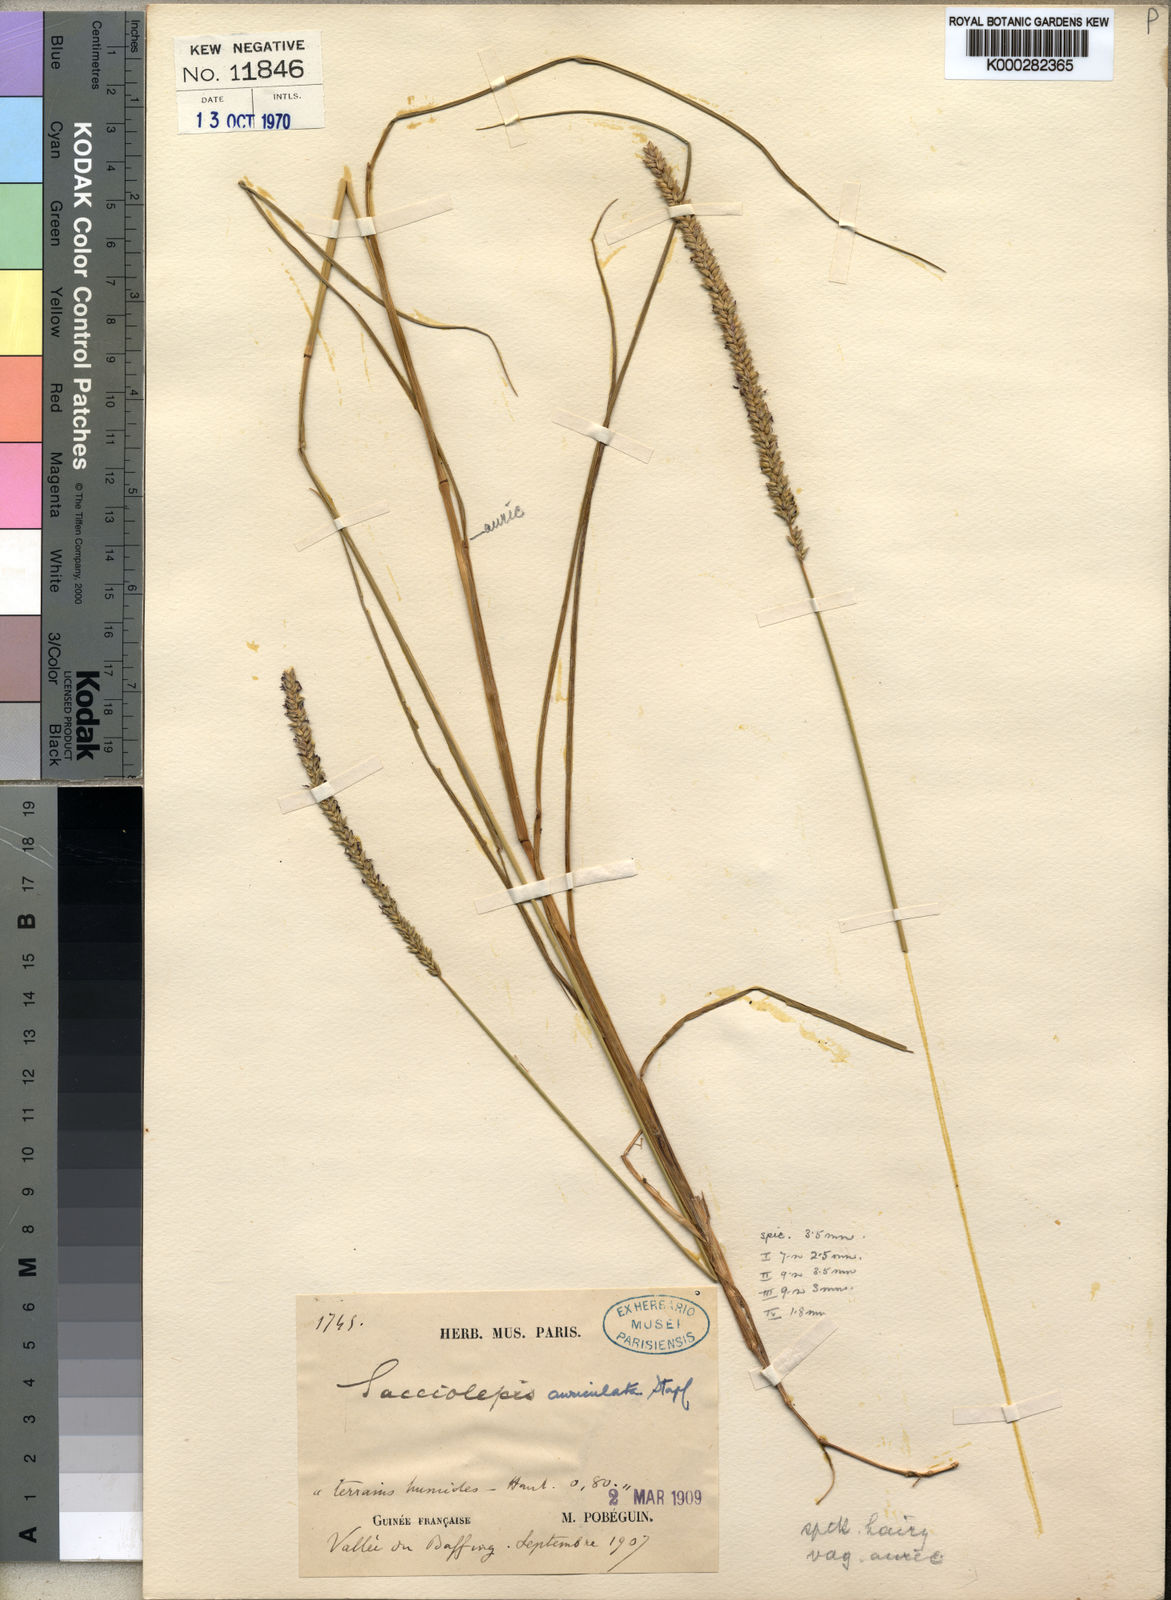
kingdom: Plantae
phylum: Tracheophyta
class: Liliopsida
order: Poales
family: Poaceae
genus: Sacciolepis
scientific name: Sacciolepis indica
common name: Glenwoodgrass
